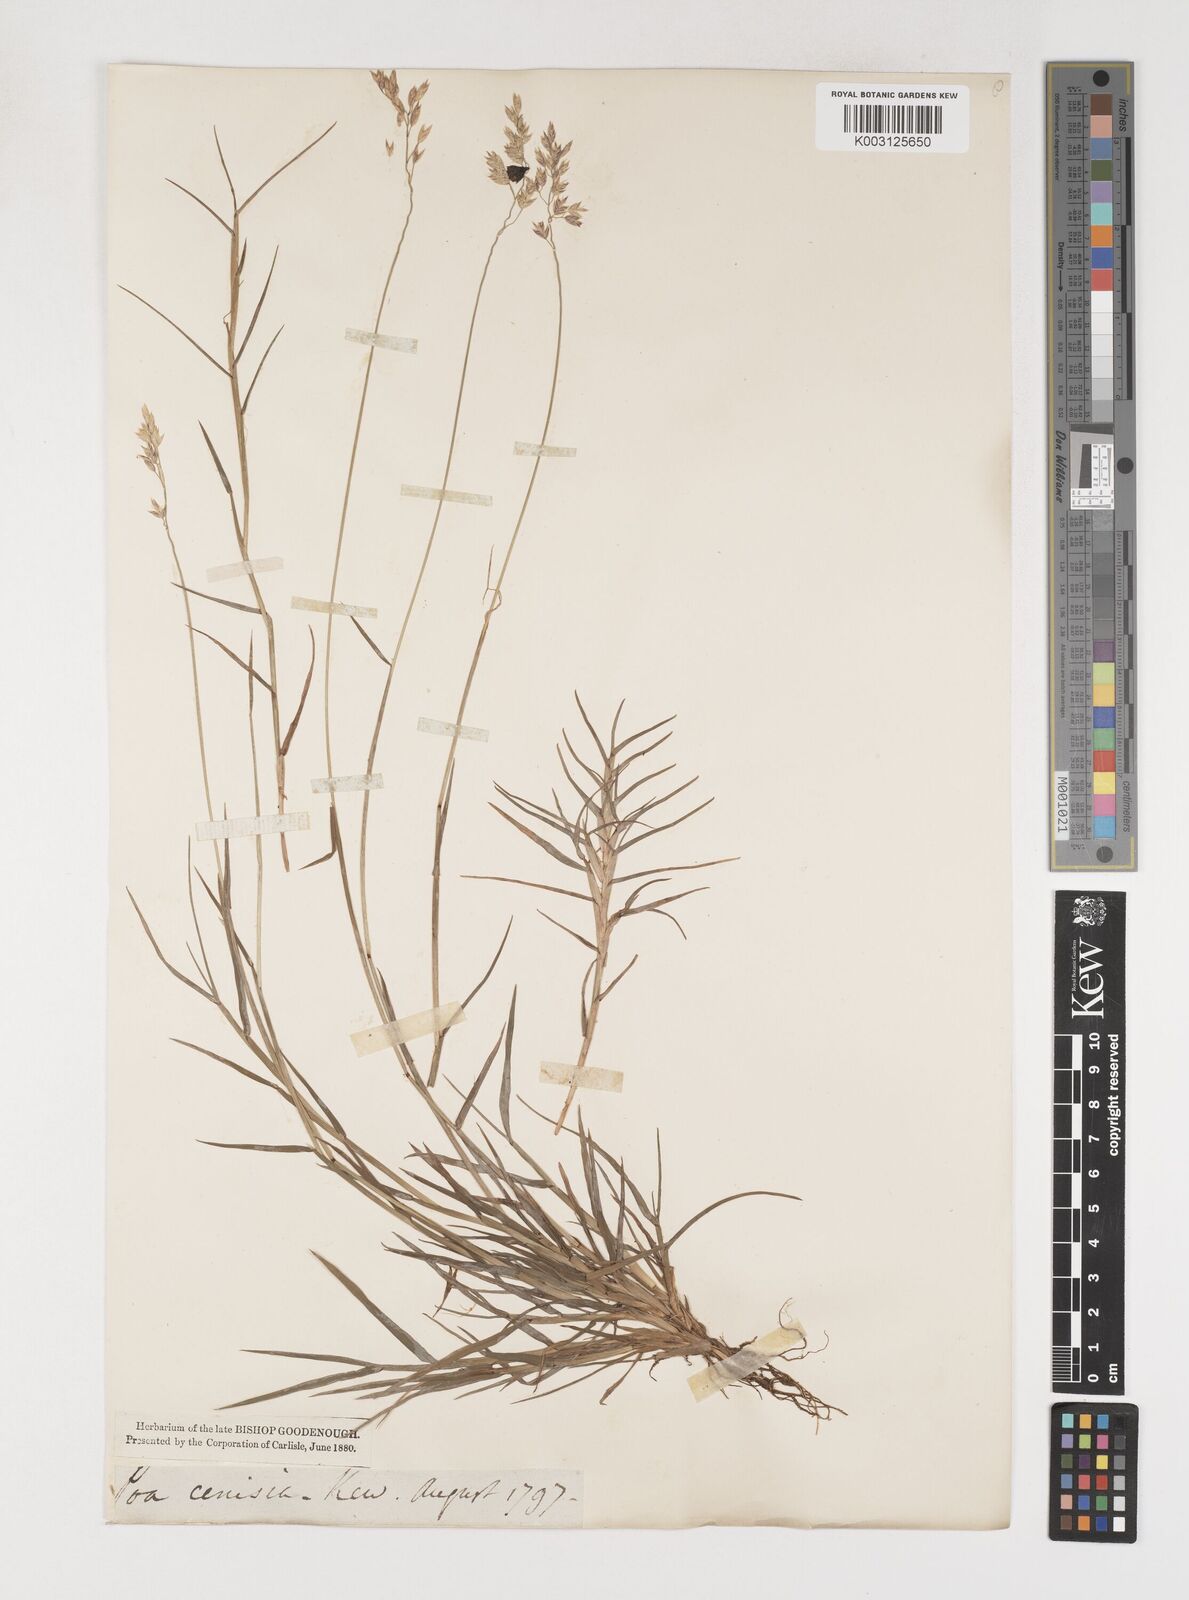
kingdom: Plantae
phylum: Tracheophyta
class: Liliopsida
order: Poales
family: Poaceae
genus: Poa
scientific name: Poa
